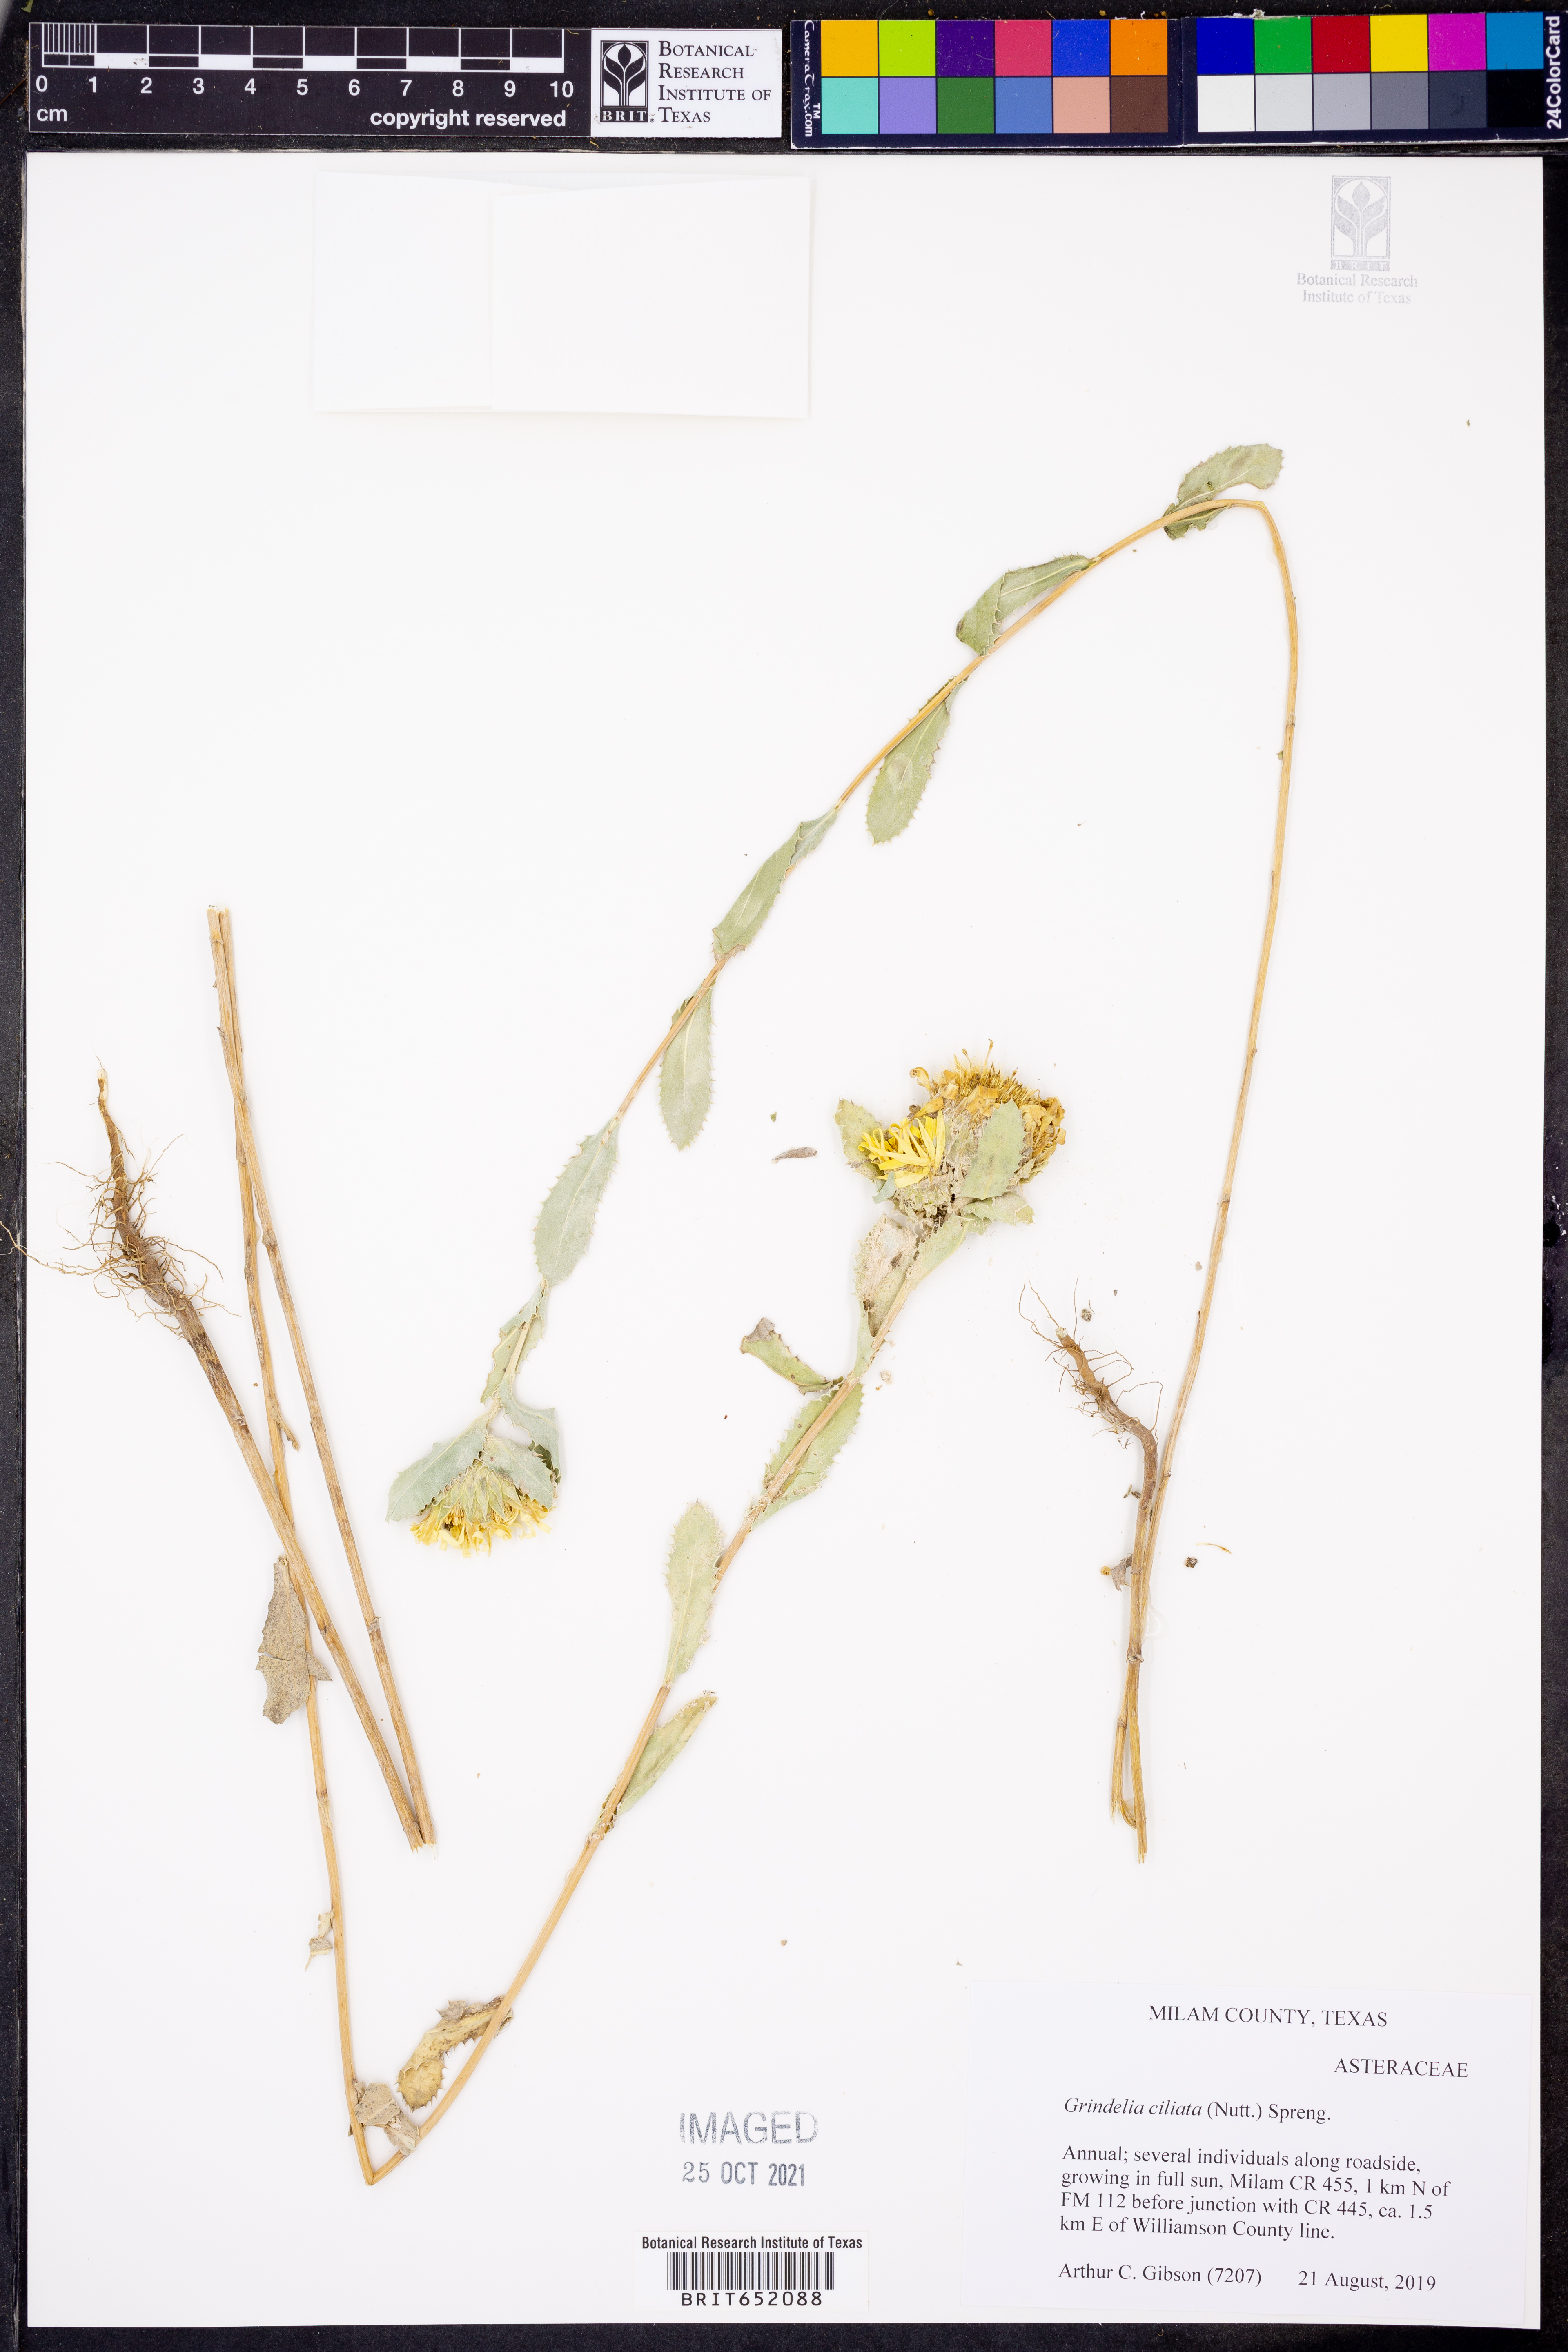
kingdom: Plantae
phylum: Tracheophyta
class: Magnoliopsida
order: Asterales
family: Asteraceae
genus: Grindelia
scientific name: Grindelia ciliata
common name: Goldenweed
